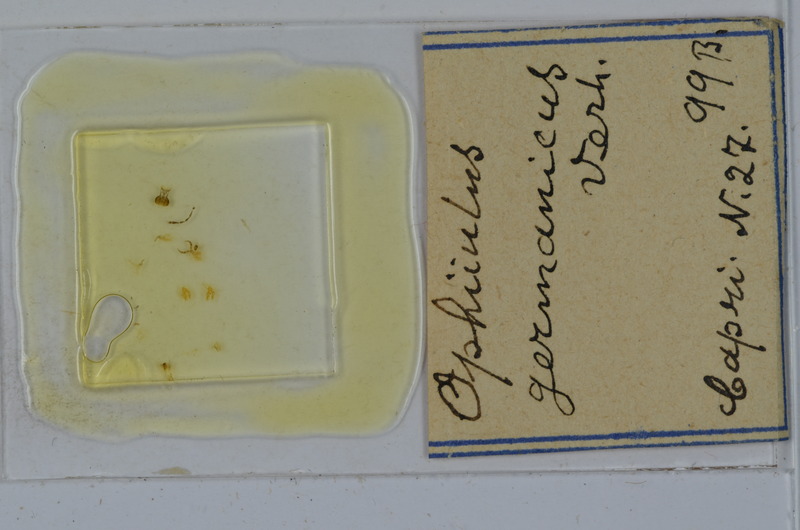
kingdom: Animalia
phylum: Arthropoda
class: Diplopoda
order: Julida
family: Julidae
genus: Ophyiulus
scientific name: Ophyiulus germanicus
